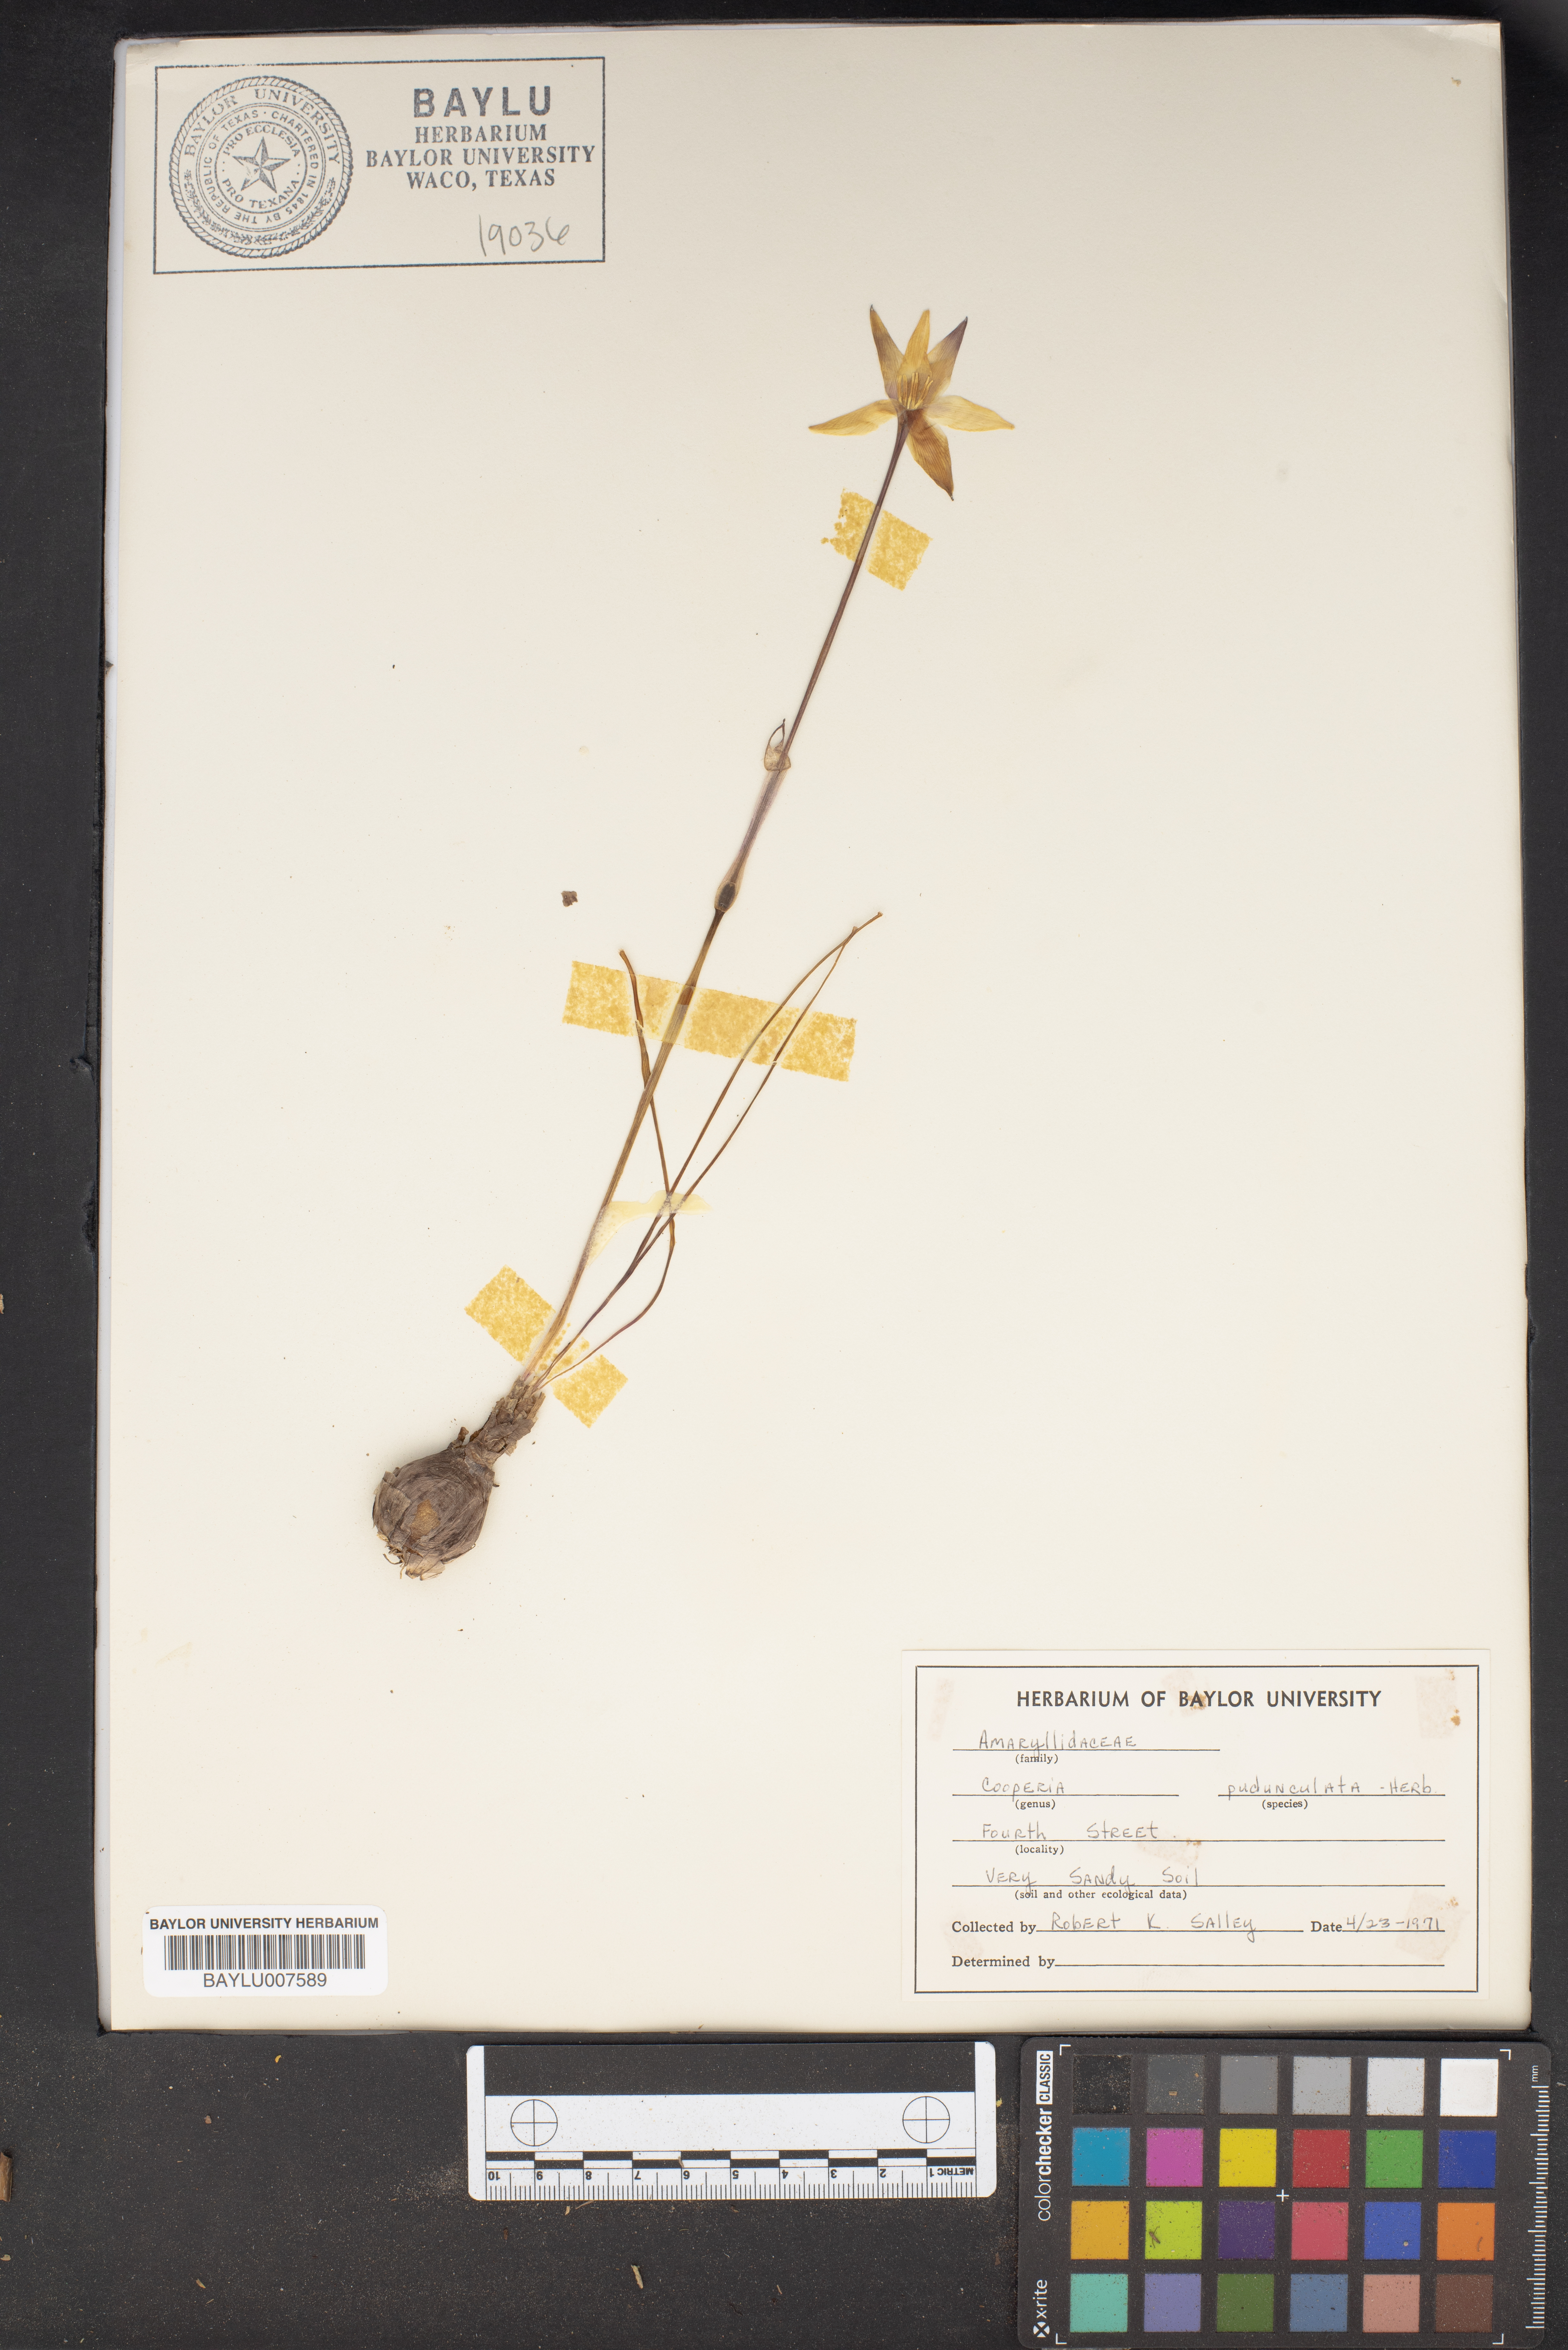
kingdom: Plantae
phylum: Tracheophyta
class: Liliopsida
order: Asparagales
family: Amaryllidaceae
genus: Zephyranthes
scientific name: Zephyranthes drummondii
